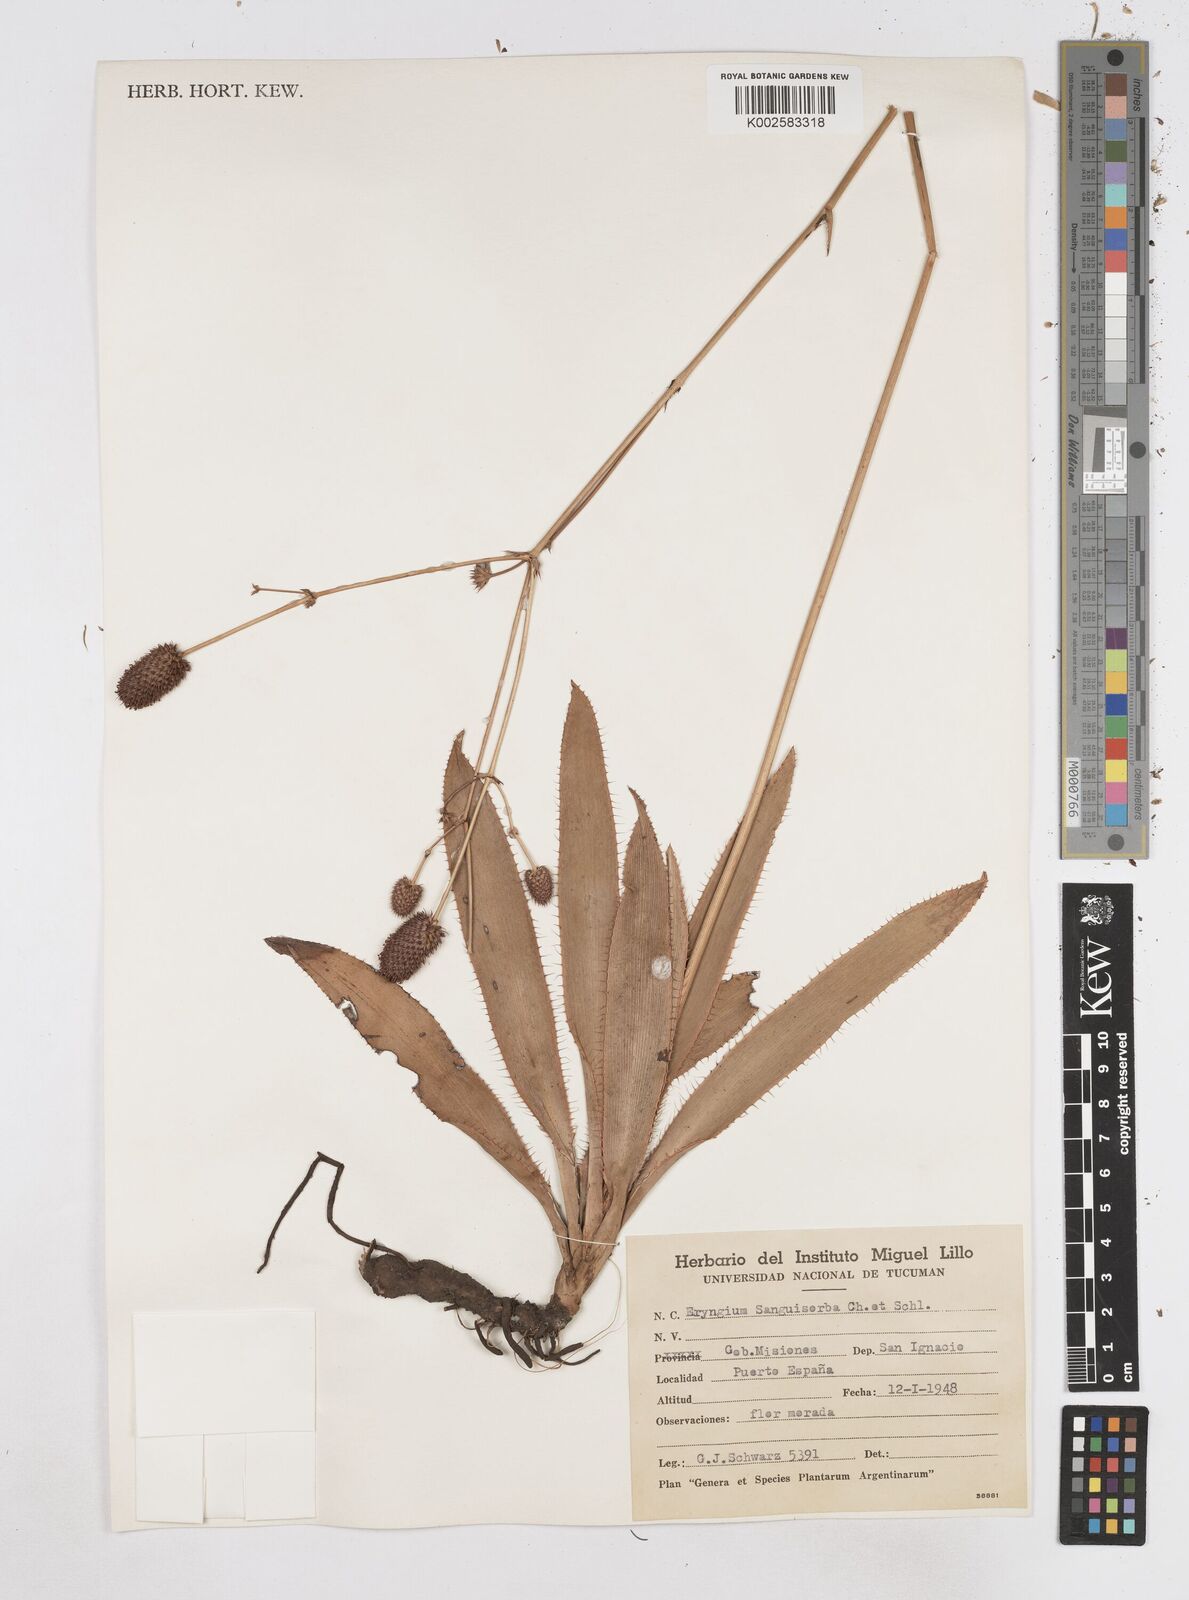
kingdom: Plantae
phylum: Tracheophyta
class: Magnoliopsida
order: Apiales
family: Apiaceae
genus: Eryngium
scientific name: Eryngium sanguisorba
